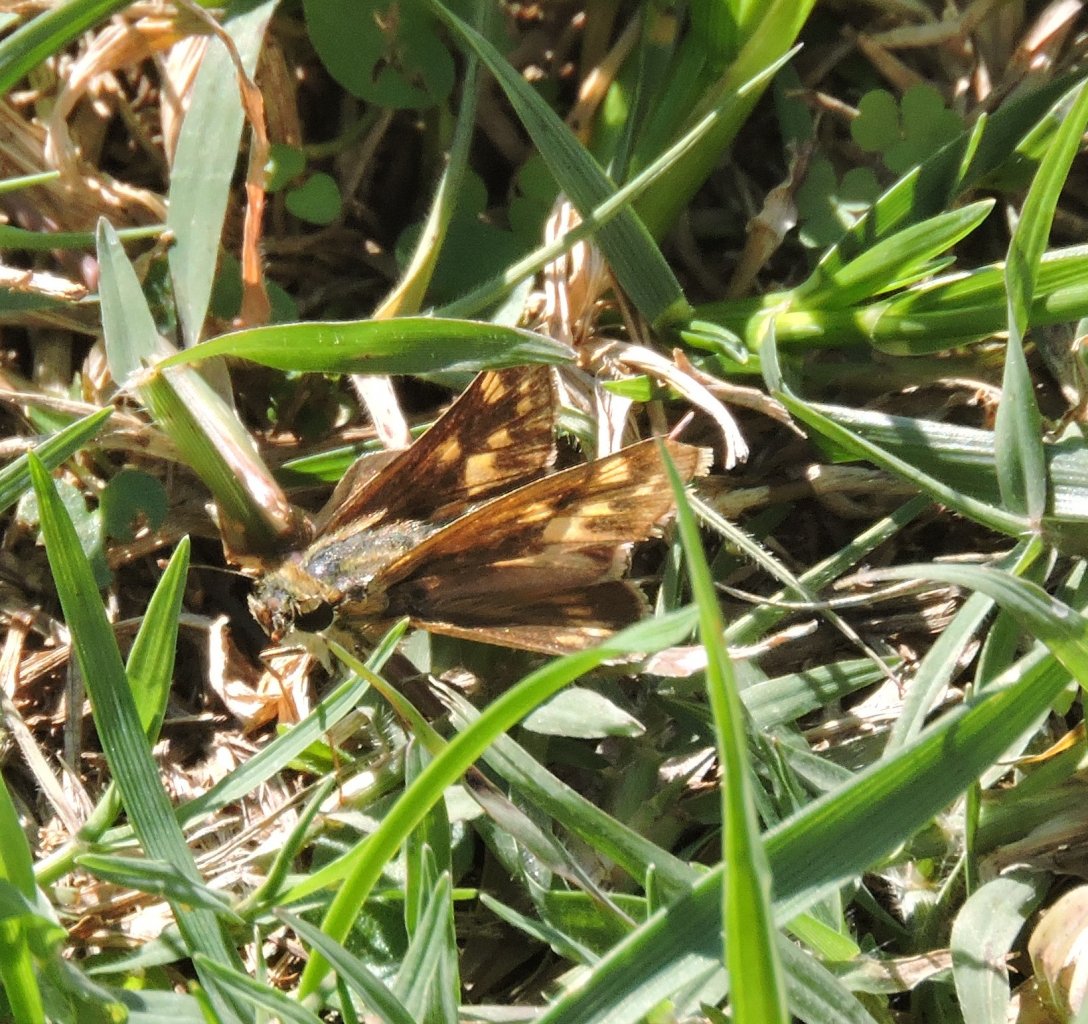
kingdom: Animalia
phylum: Arthropoda
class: Insecta
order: Lepidoptera
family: Hesperiidae
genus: Atalopedes
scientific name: Atalopedes campestris
